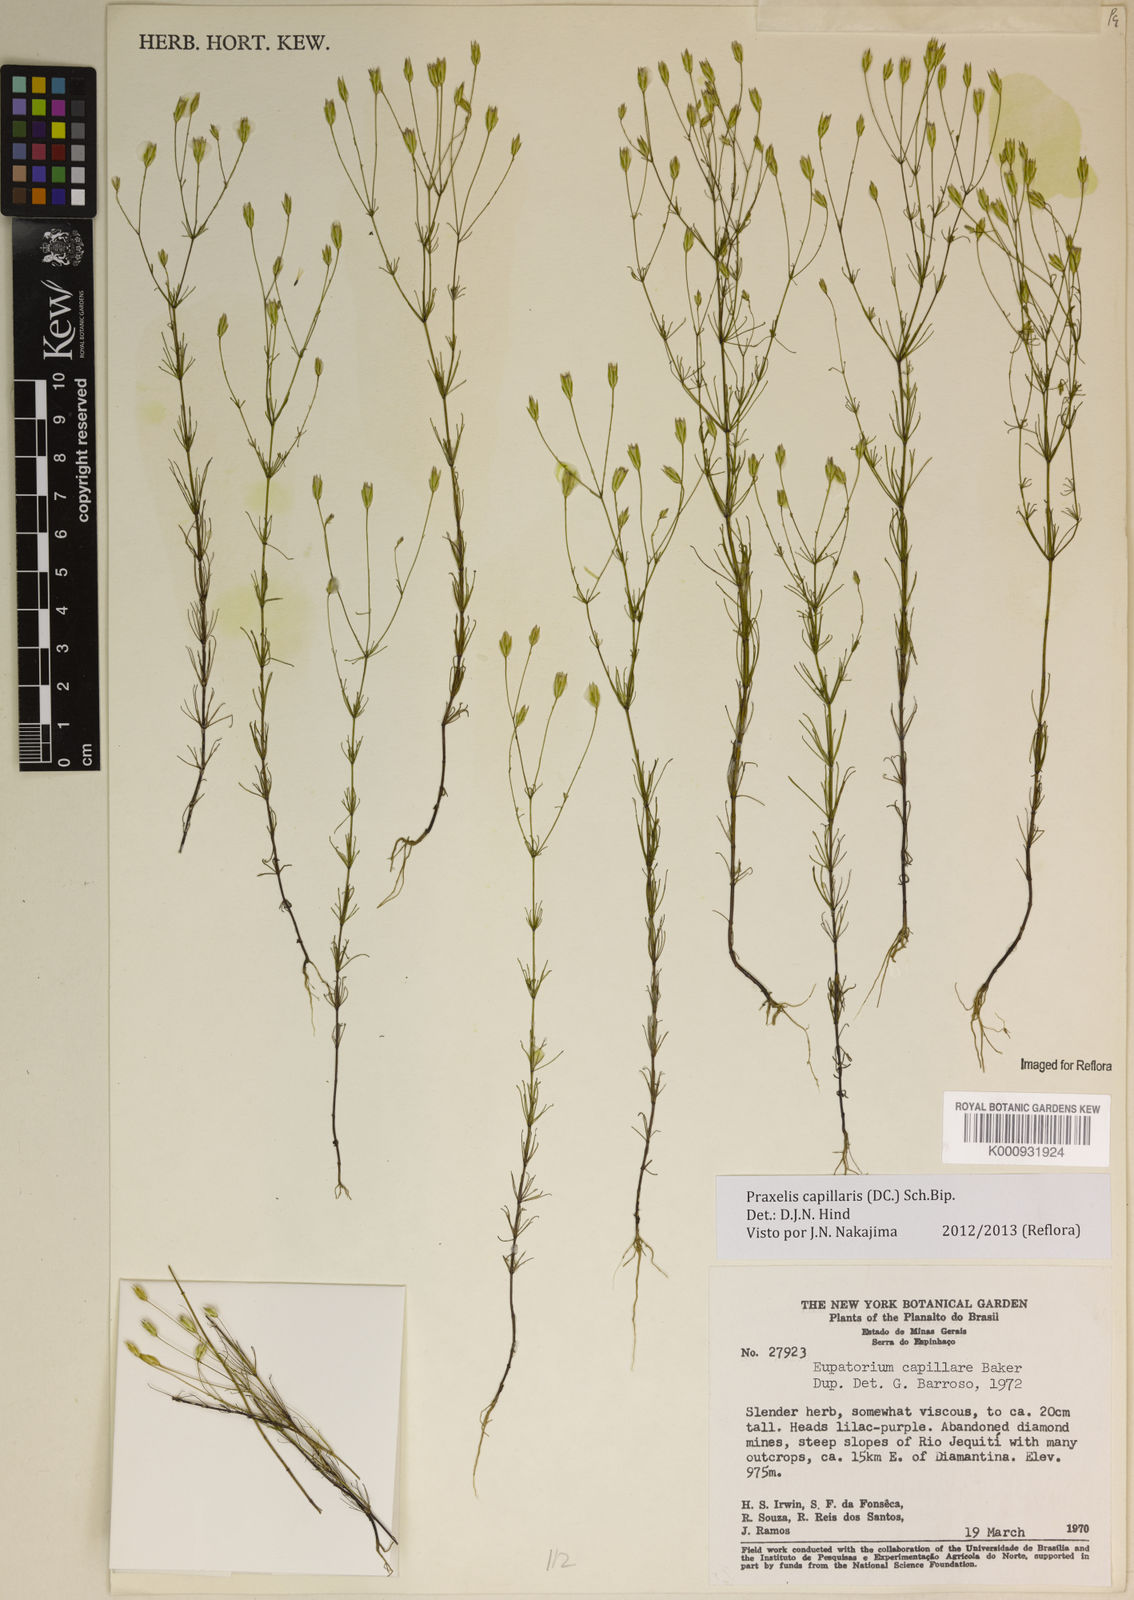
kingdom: Plantae
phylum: Tracheophyta
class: Magnoliopsida
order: Asterales
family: Asteraceae
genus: Praxelis
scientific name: Praxelis capillaris
